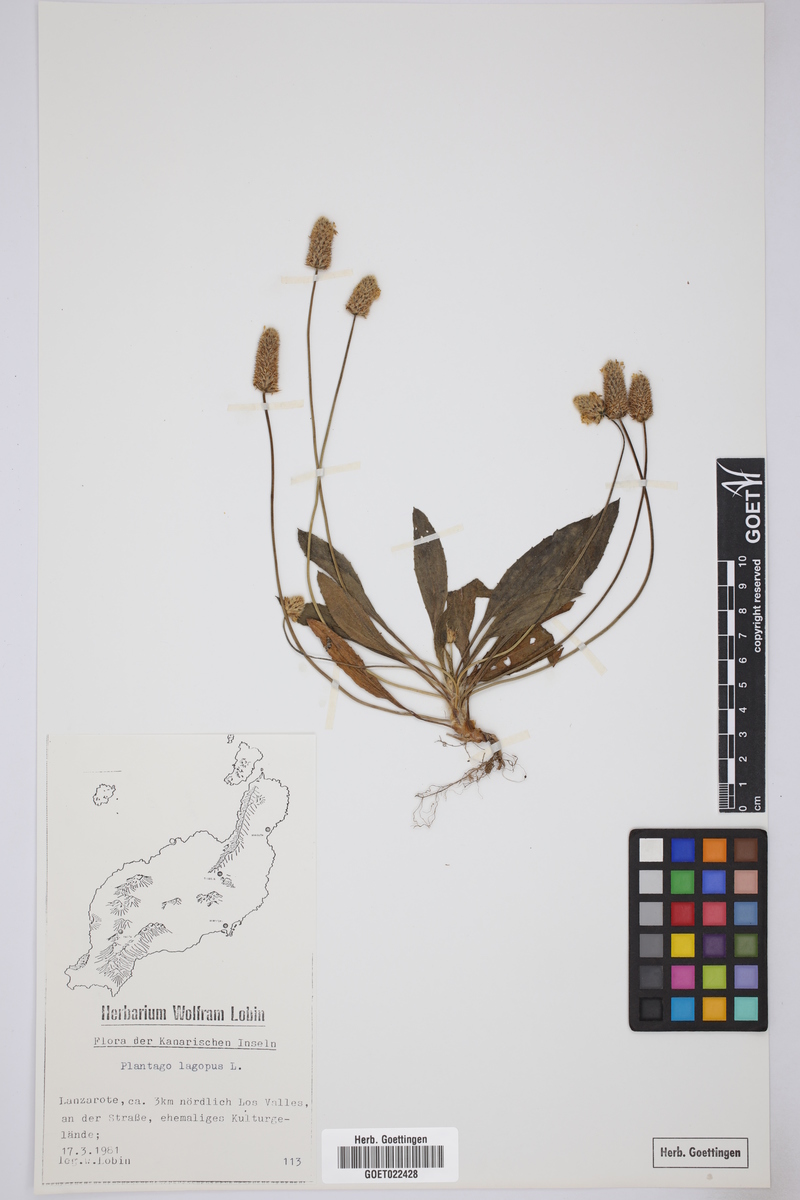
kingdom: Plantae
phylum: Tracheophyta
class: Magnoliopsida
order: Lamiales
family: Plantaginaceae
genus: Plantago
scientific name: Plantago lagopus
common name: Hare-foot plantain
